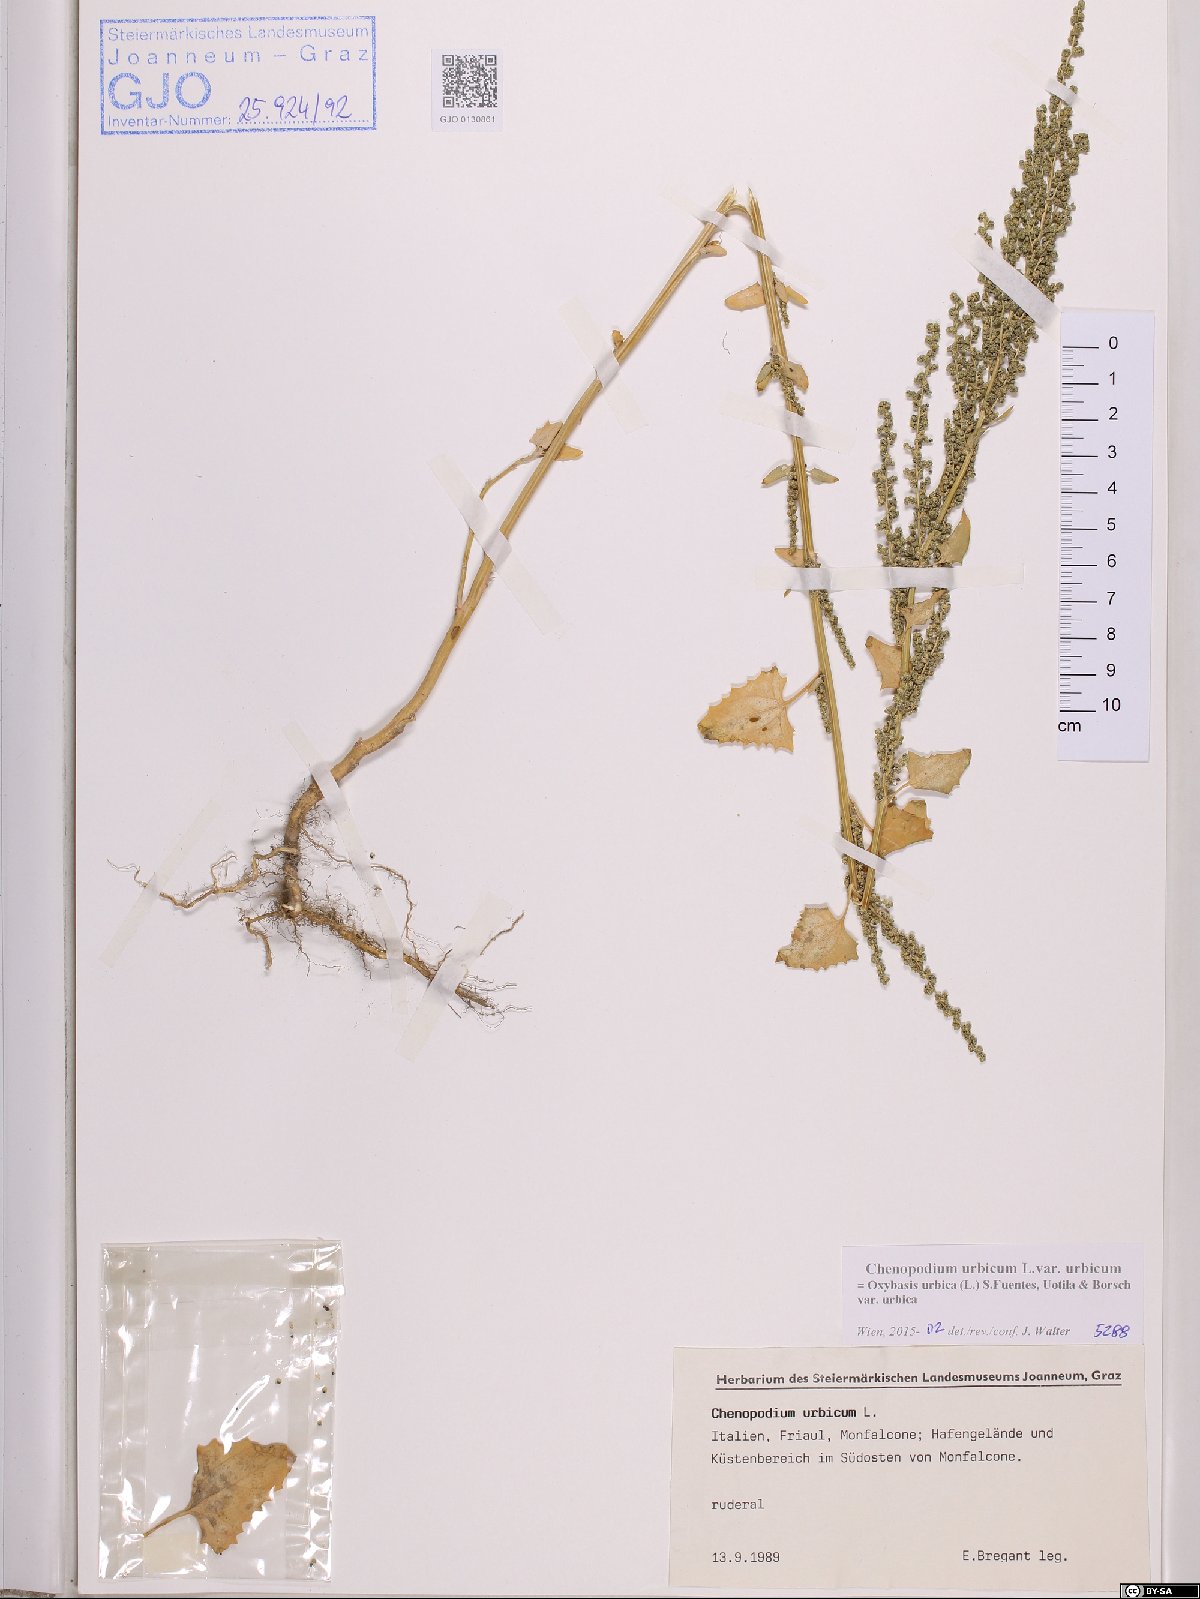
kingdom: Plantae
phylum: Tracheophyta
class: Magnoliopsida
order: Caryophyllales
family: Amaranthaceae
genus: Oxybasis
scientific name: Oxybasis urbica
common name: City goosefoot
